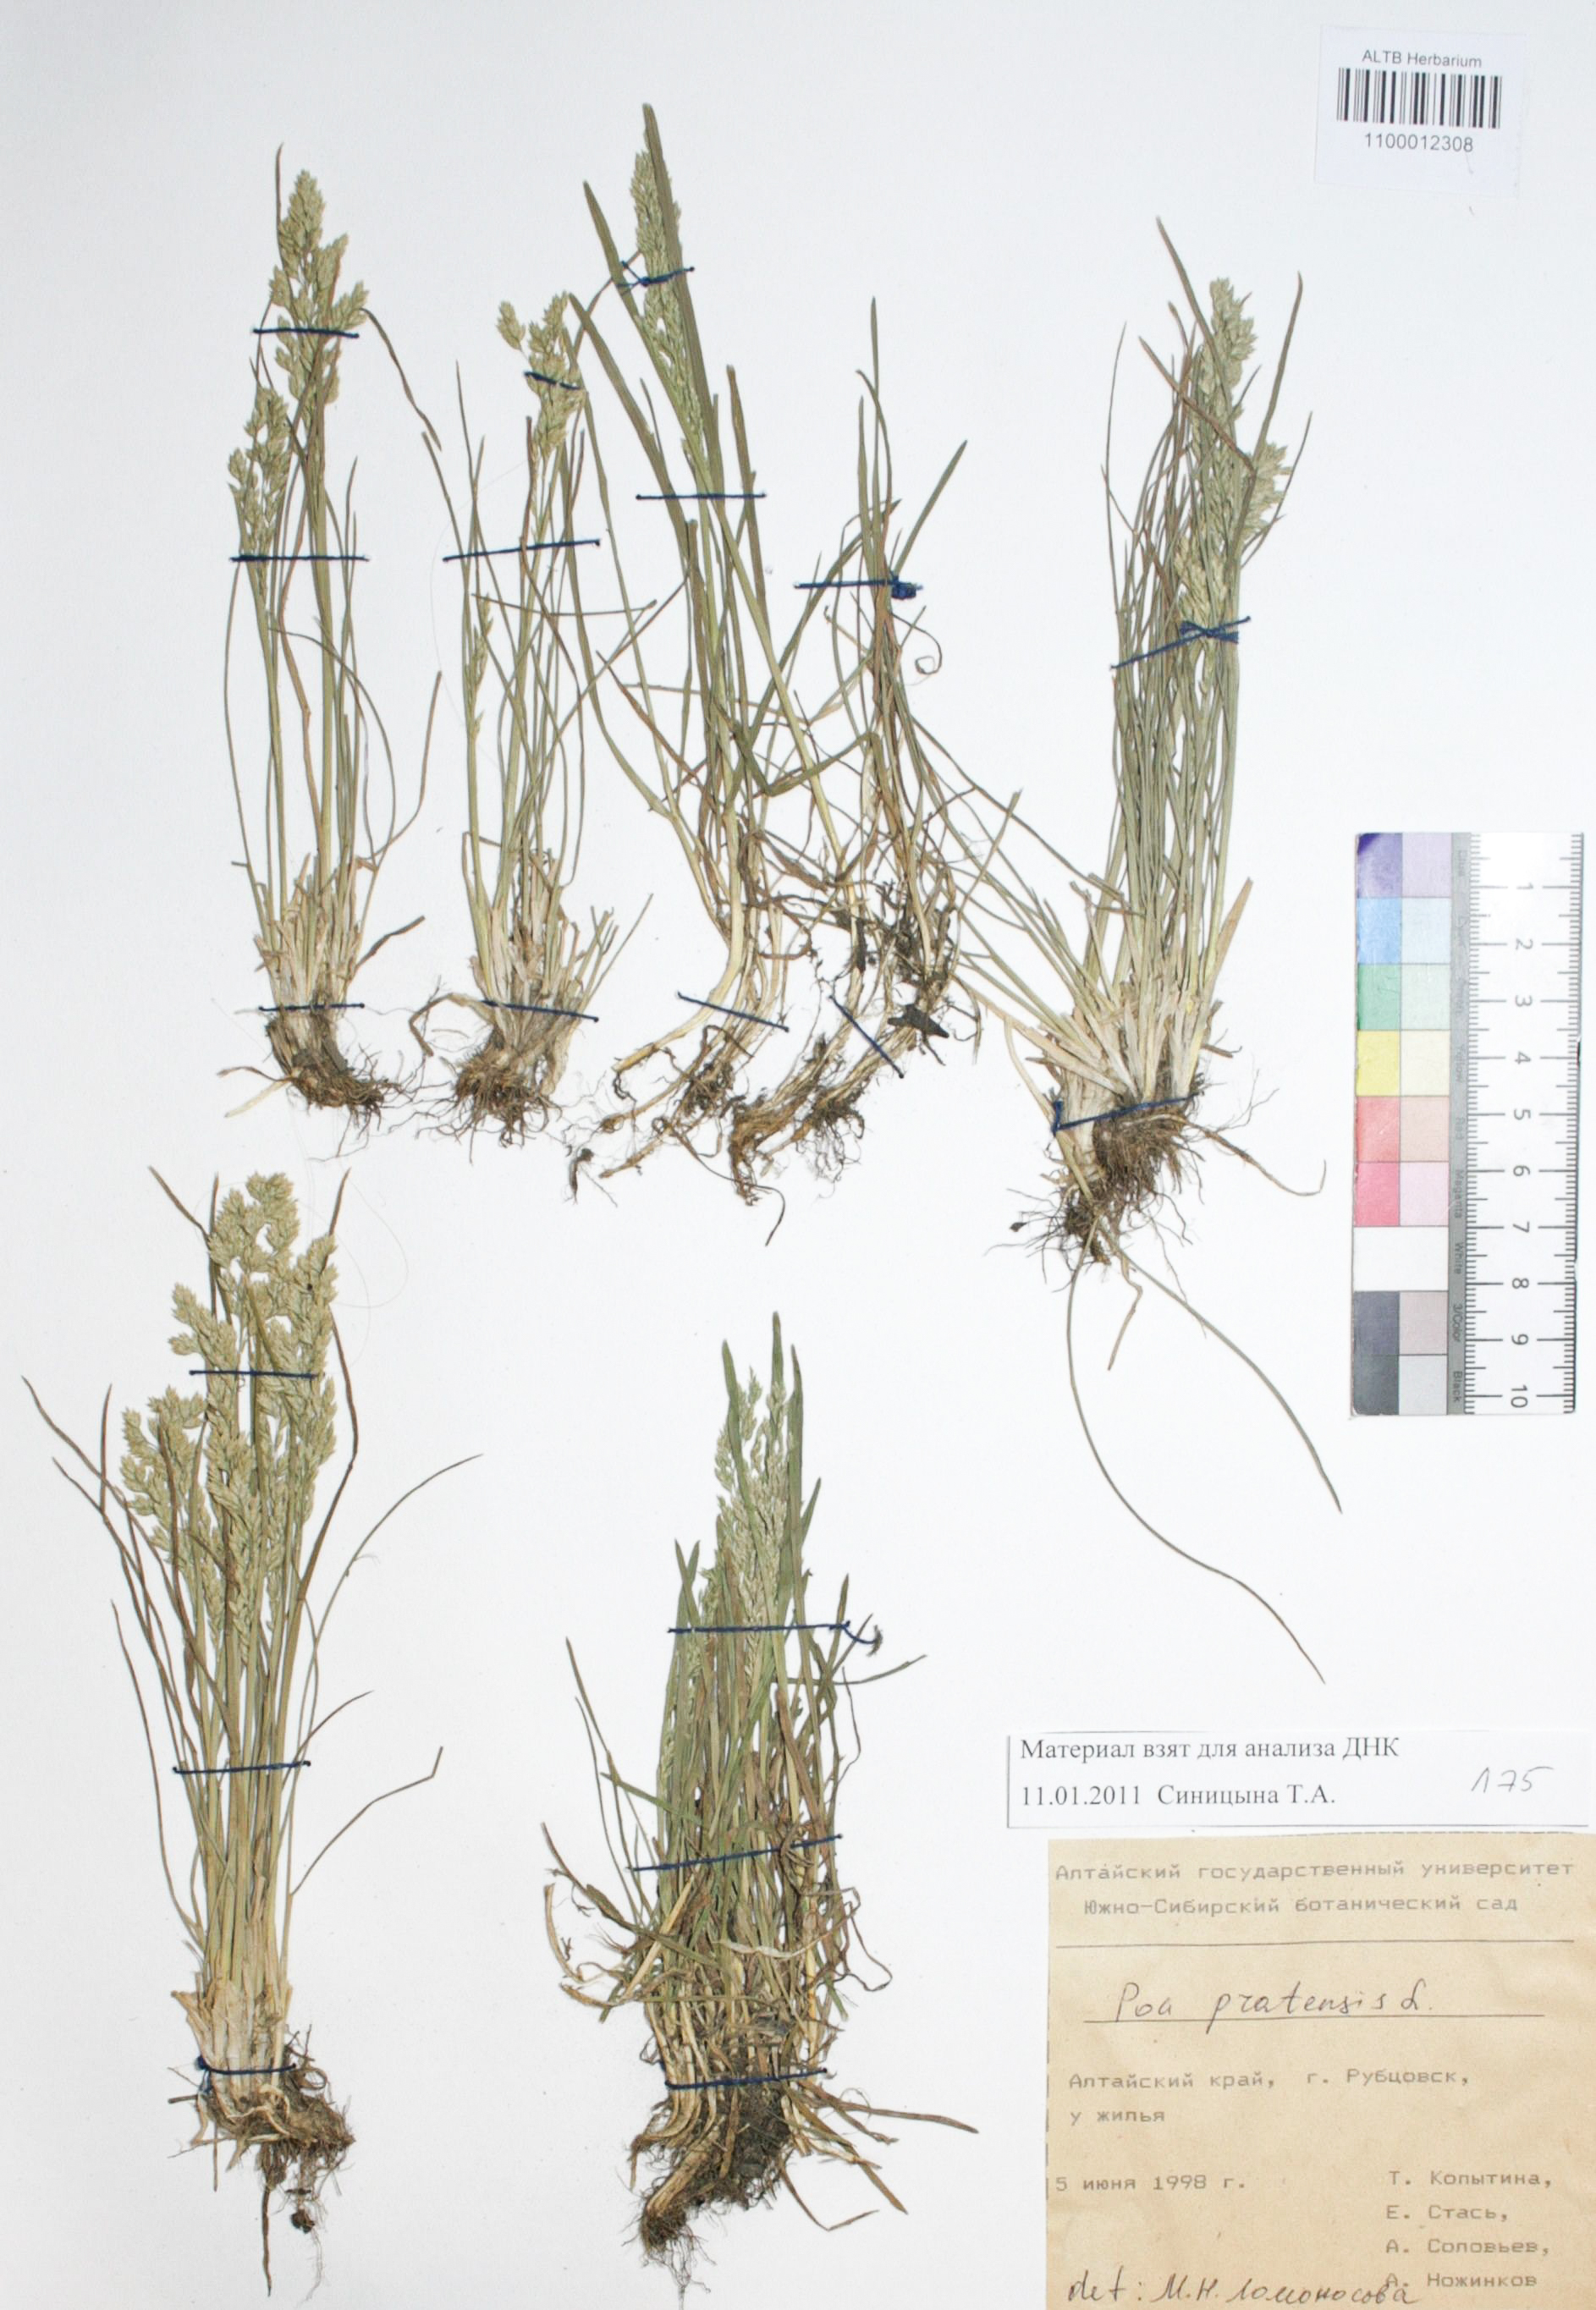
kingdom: Plantae
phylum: Tracheophyta
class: Liliopsida
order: Poales
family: Poaceae
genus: Poa
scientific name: Poa pratensis
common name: Kentucky bluegrass
